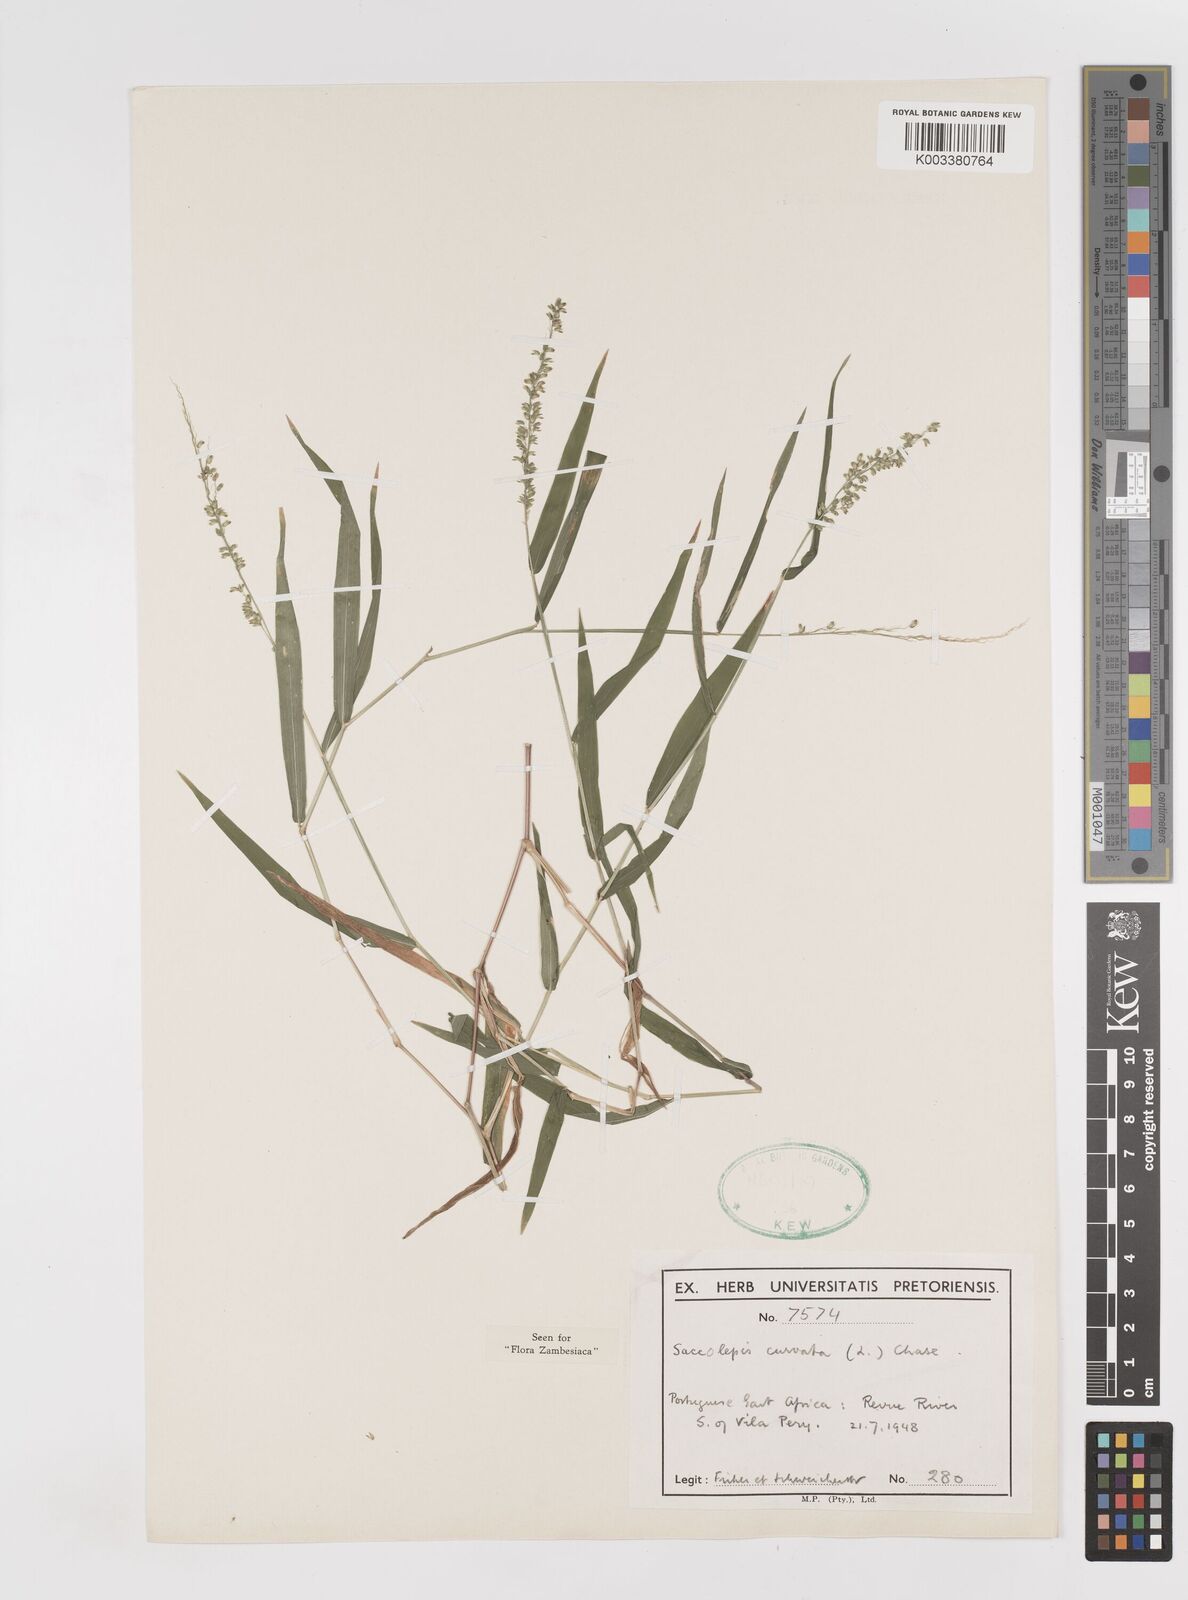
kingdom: Plantae
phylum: Tracheophyta
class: Liliopsida
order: Poales
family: Poaceae
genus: Sacciolepis
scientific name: Sacciolepis curvata
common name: Forest hood grass
